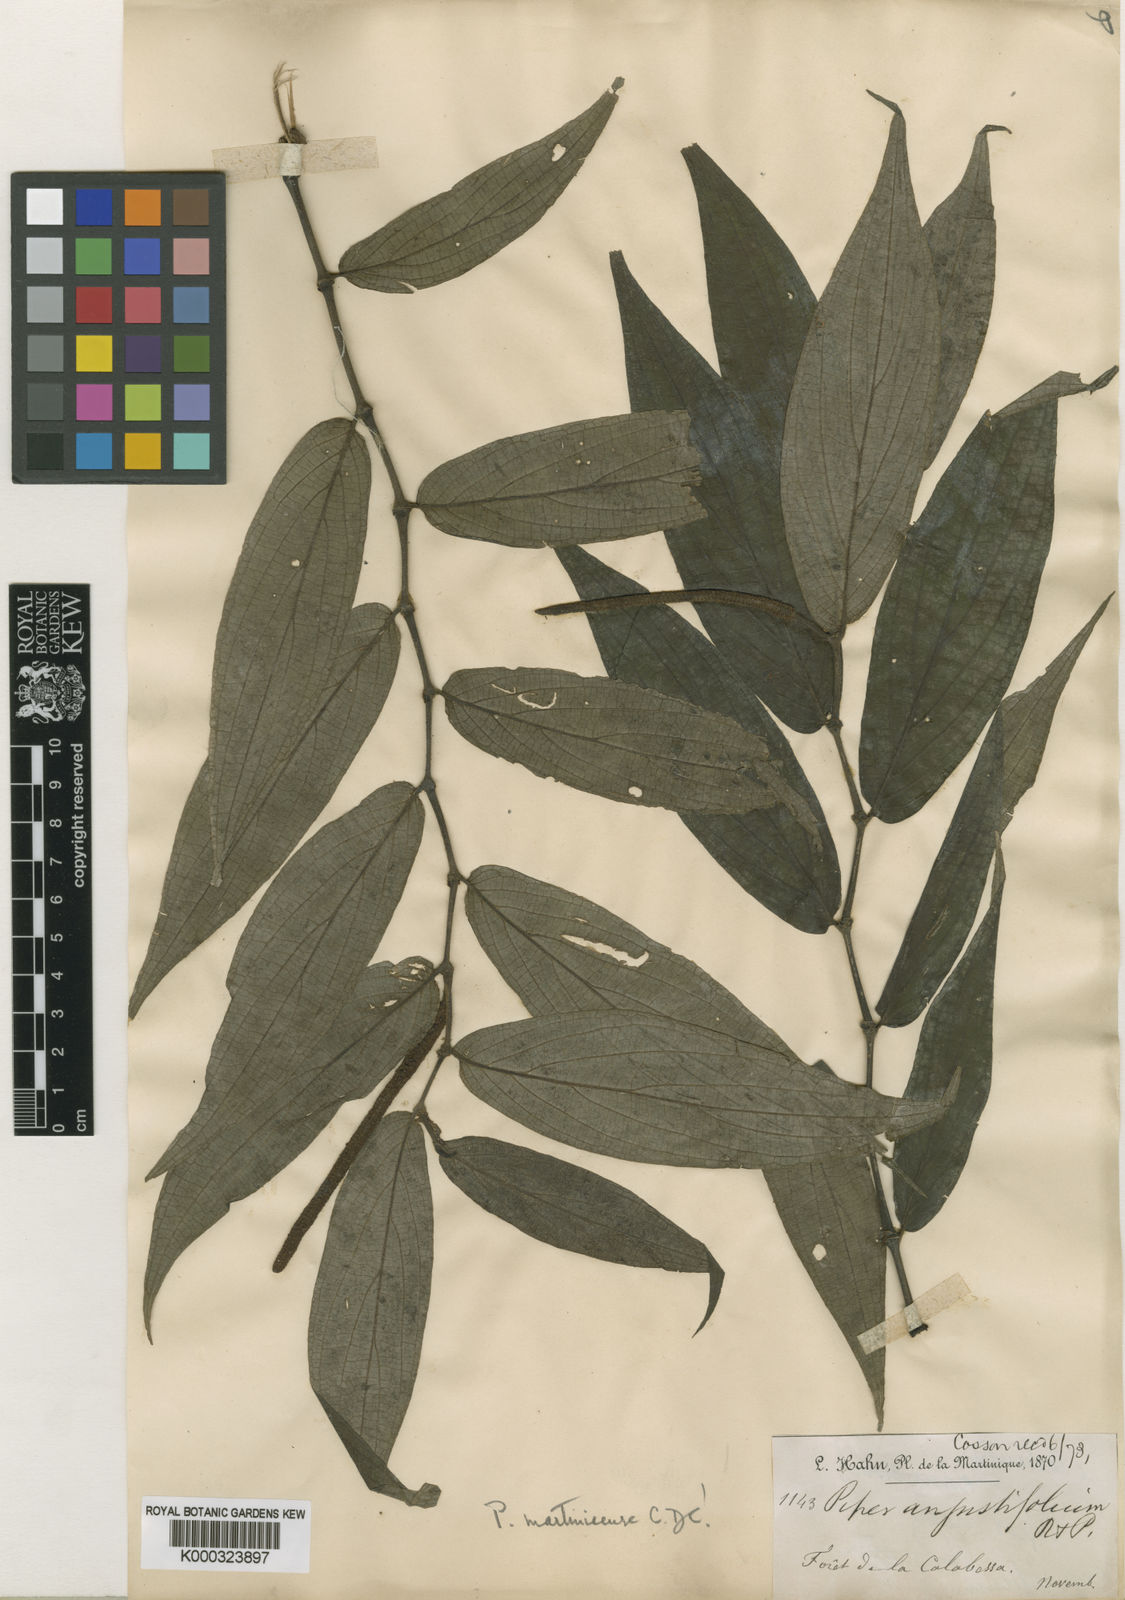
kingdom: Plantae
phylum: Tracheophyta
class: Magnoliopsida
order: Piperales
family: Piperaceae
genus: Piper
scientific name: Piper aduncum
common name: Spiked pepper
